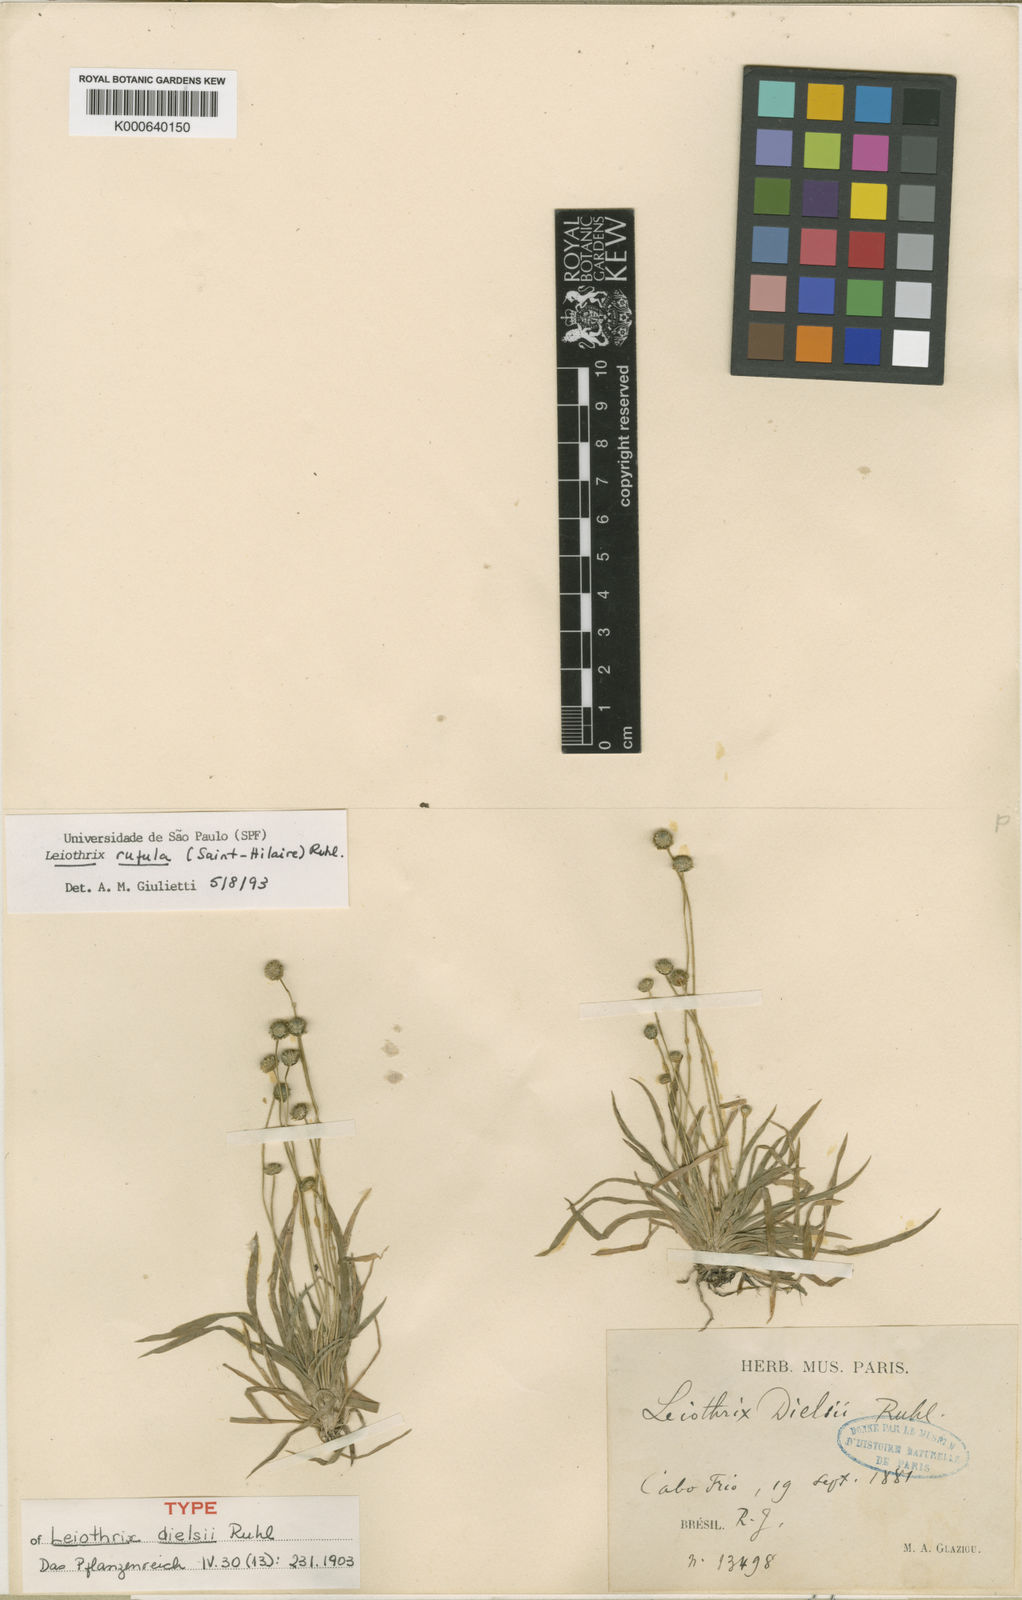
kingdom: Plantae
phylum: Tracheophyta
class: Liliopsida
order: Poales
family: Eriocaulaceae
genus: Leiothrix
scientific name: Leiothrix rufula
